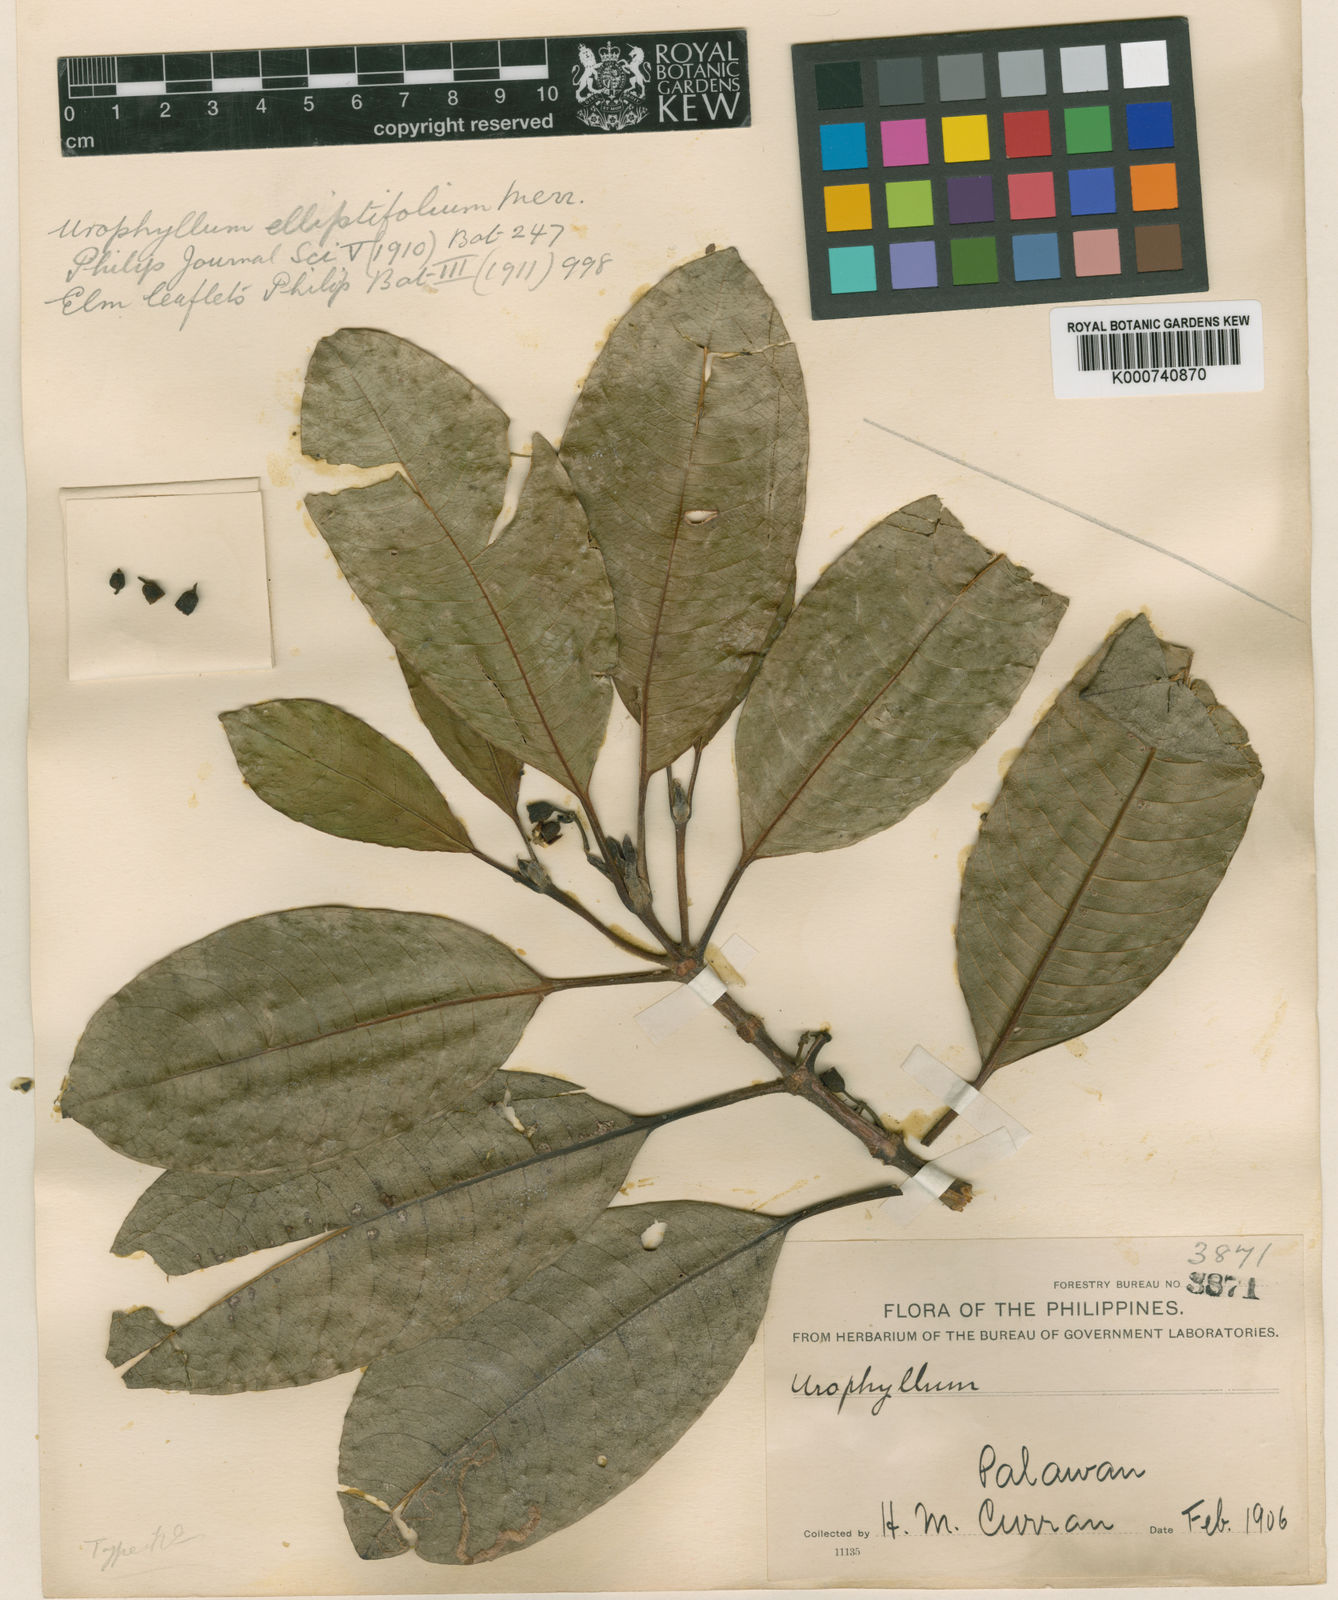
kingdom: Plantae
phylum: Tracheophyta
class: Magnoliopsida
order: Gentianales
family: Rubiaceae
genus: Urophyllum
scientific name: Urophyllum elliptifolium
